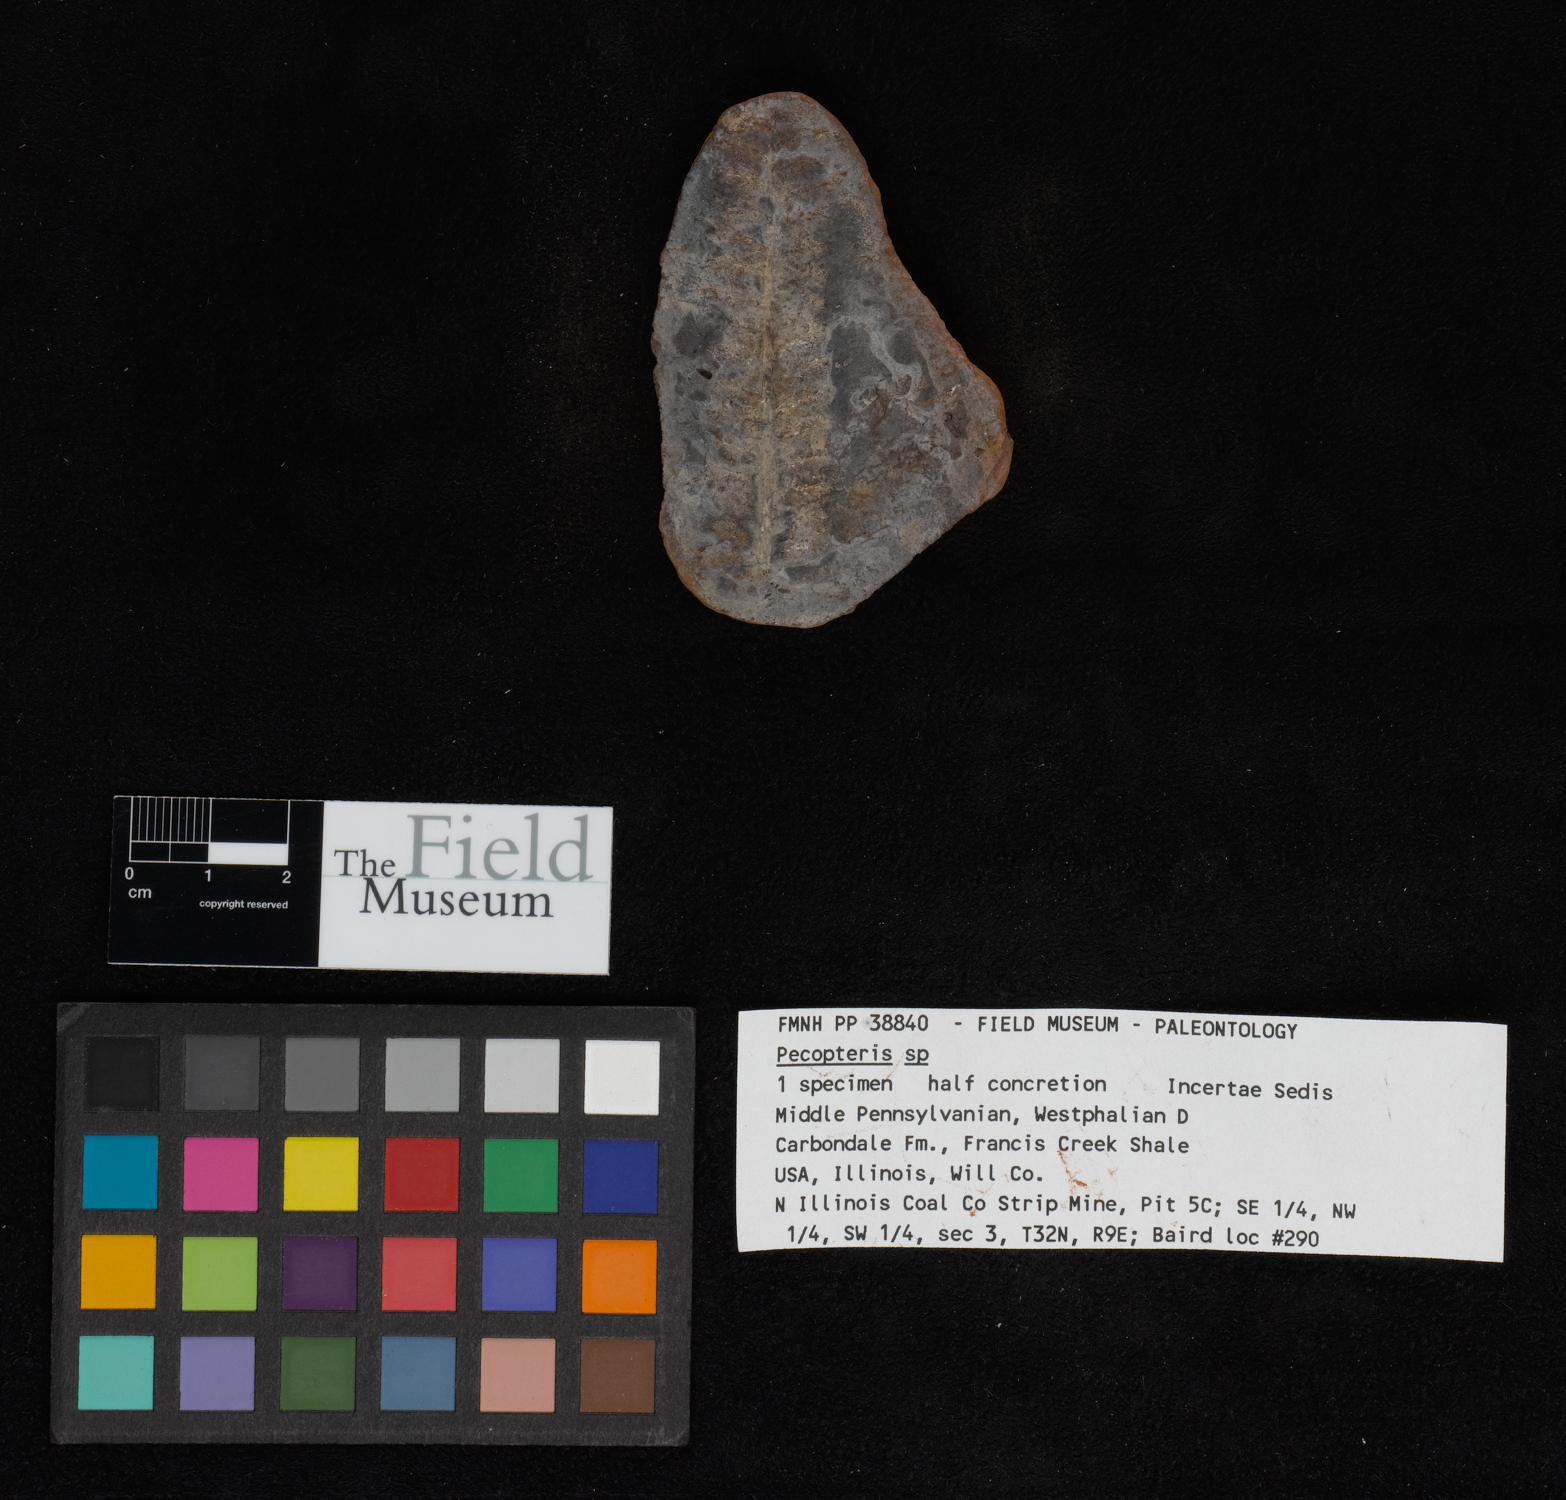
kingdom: Plantae
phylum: Tracheophyta
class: Polypodiopsida
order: Marattiales
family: Asterothecaceae
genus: Pecopteris
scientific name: Pecopteris
